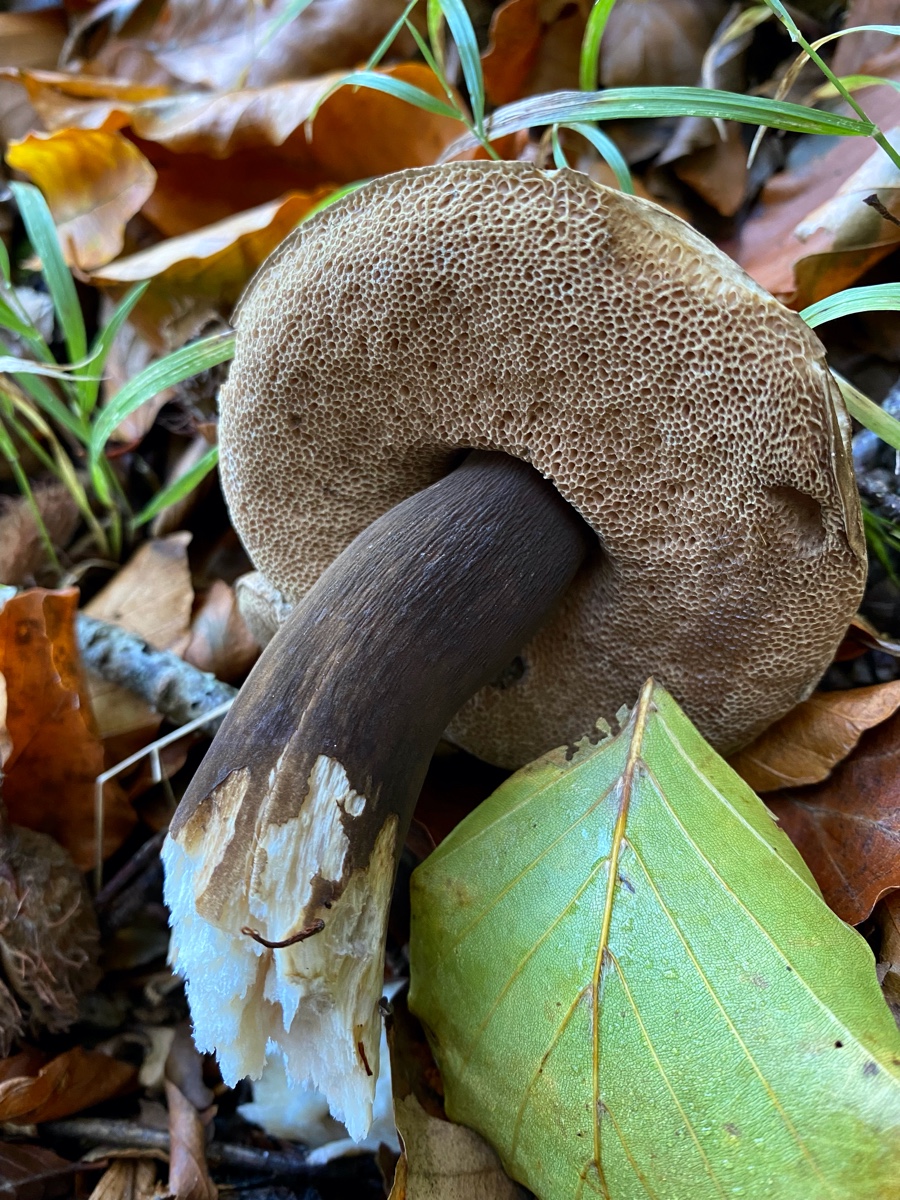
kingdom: Fungi
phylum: Basidiomycota
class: Agaricomycetes
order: Boletales
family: Boletaceae
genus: Porphyrellus
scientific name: Porphyrellus porphyrosporus
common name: sodrørhat
